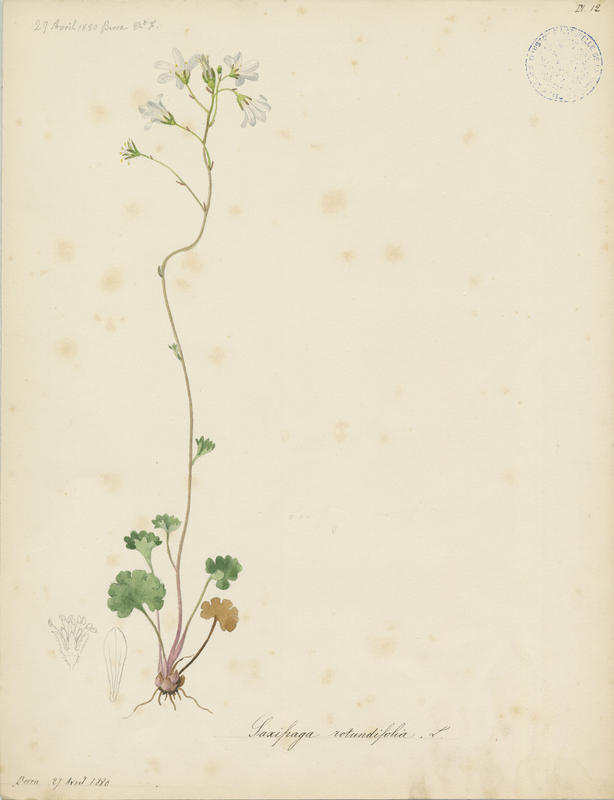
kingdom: Plantae
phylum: Tracheophyta
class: Magnoliopsida
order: Saxifragales
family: Saxifragaceae
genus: Saxifraga
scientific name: Saxifraga rotundifolia
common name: Round-leaved saxifrage
